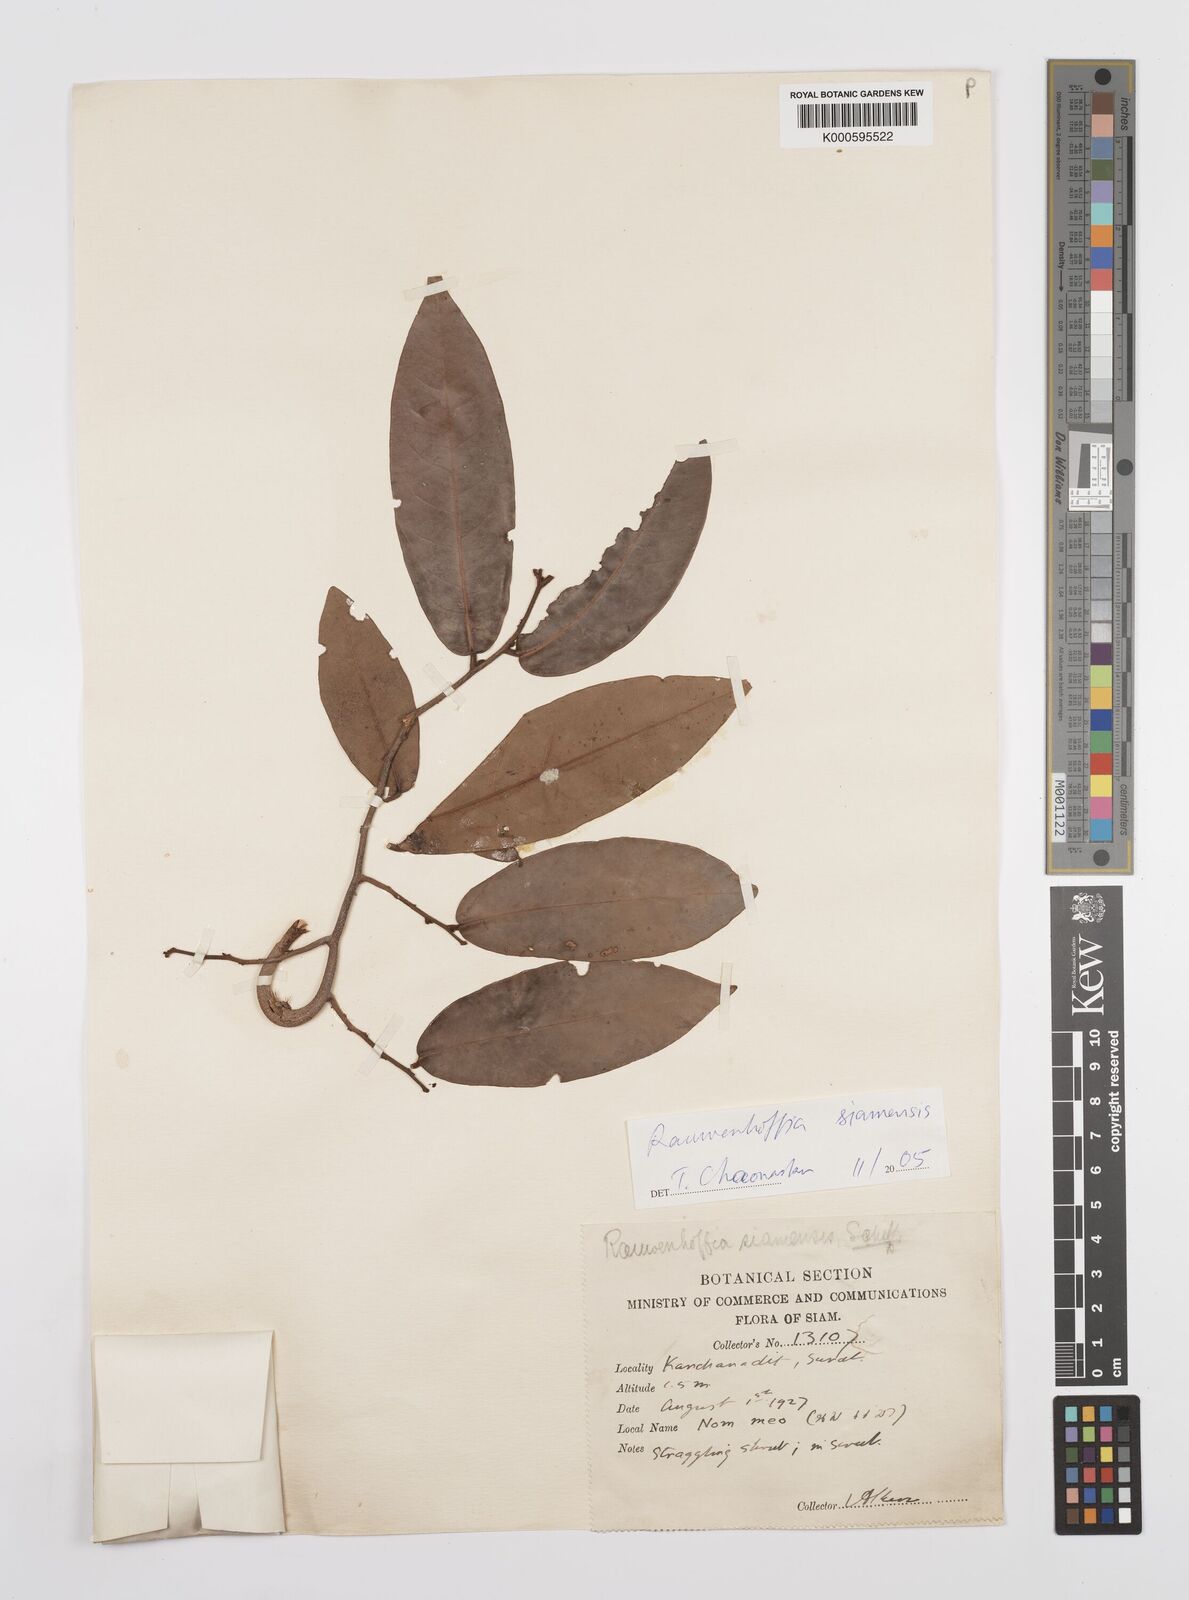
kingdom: Plantae
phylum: Tracheophyta
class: Magnoliopsida
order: Magnoliales
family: Annonaceae
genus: Melodorum
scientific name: Melodorum fruticosum
